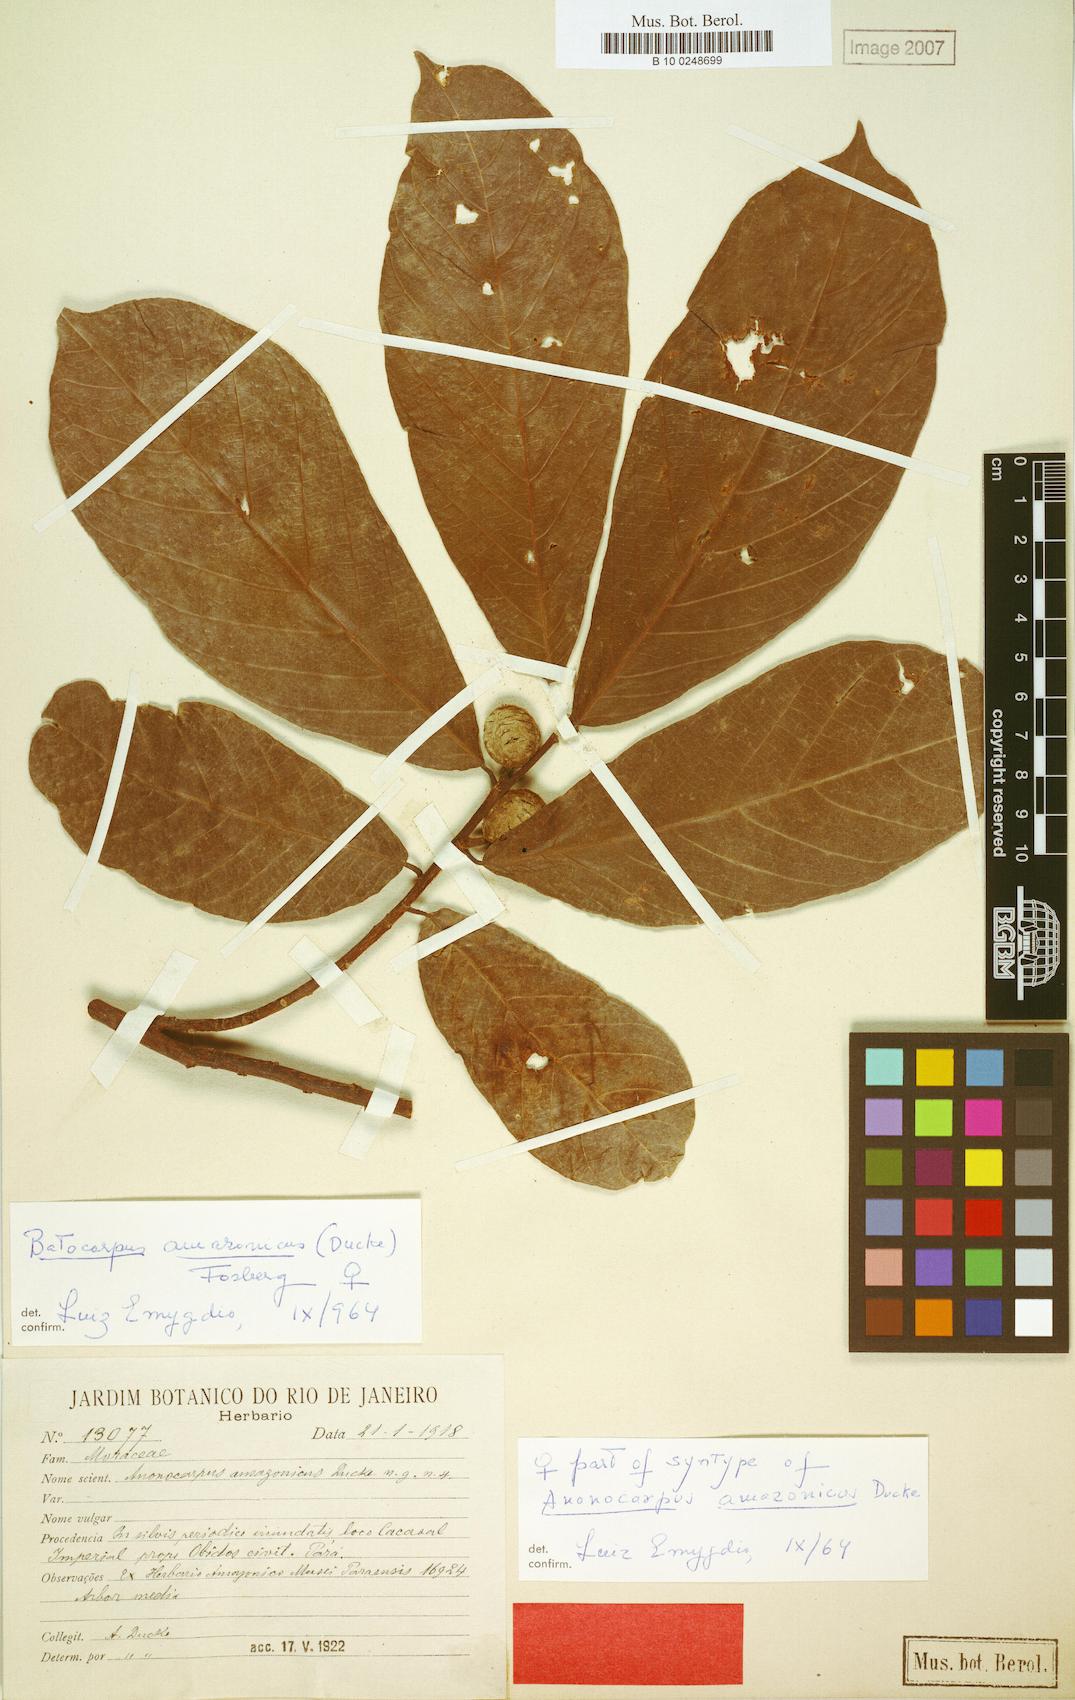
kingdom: Plantae
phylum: Tracheophyta
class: Magnoliopsida
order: Rosales
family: Moraceae
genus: Batocarpus
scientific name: Batocarpus amazonicus
